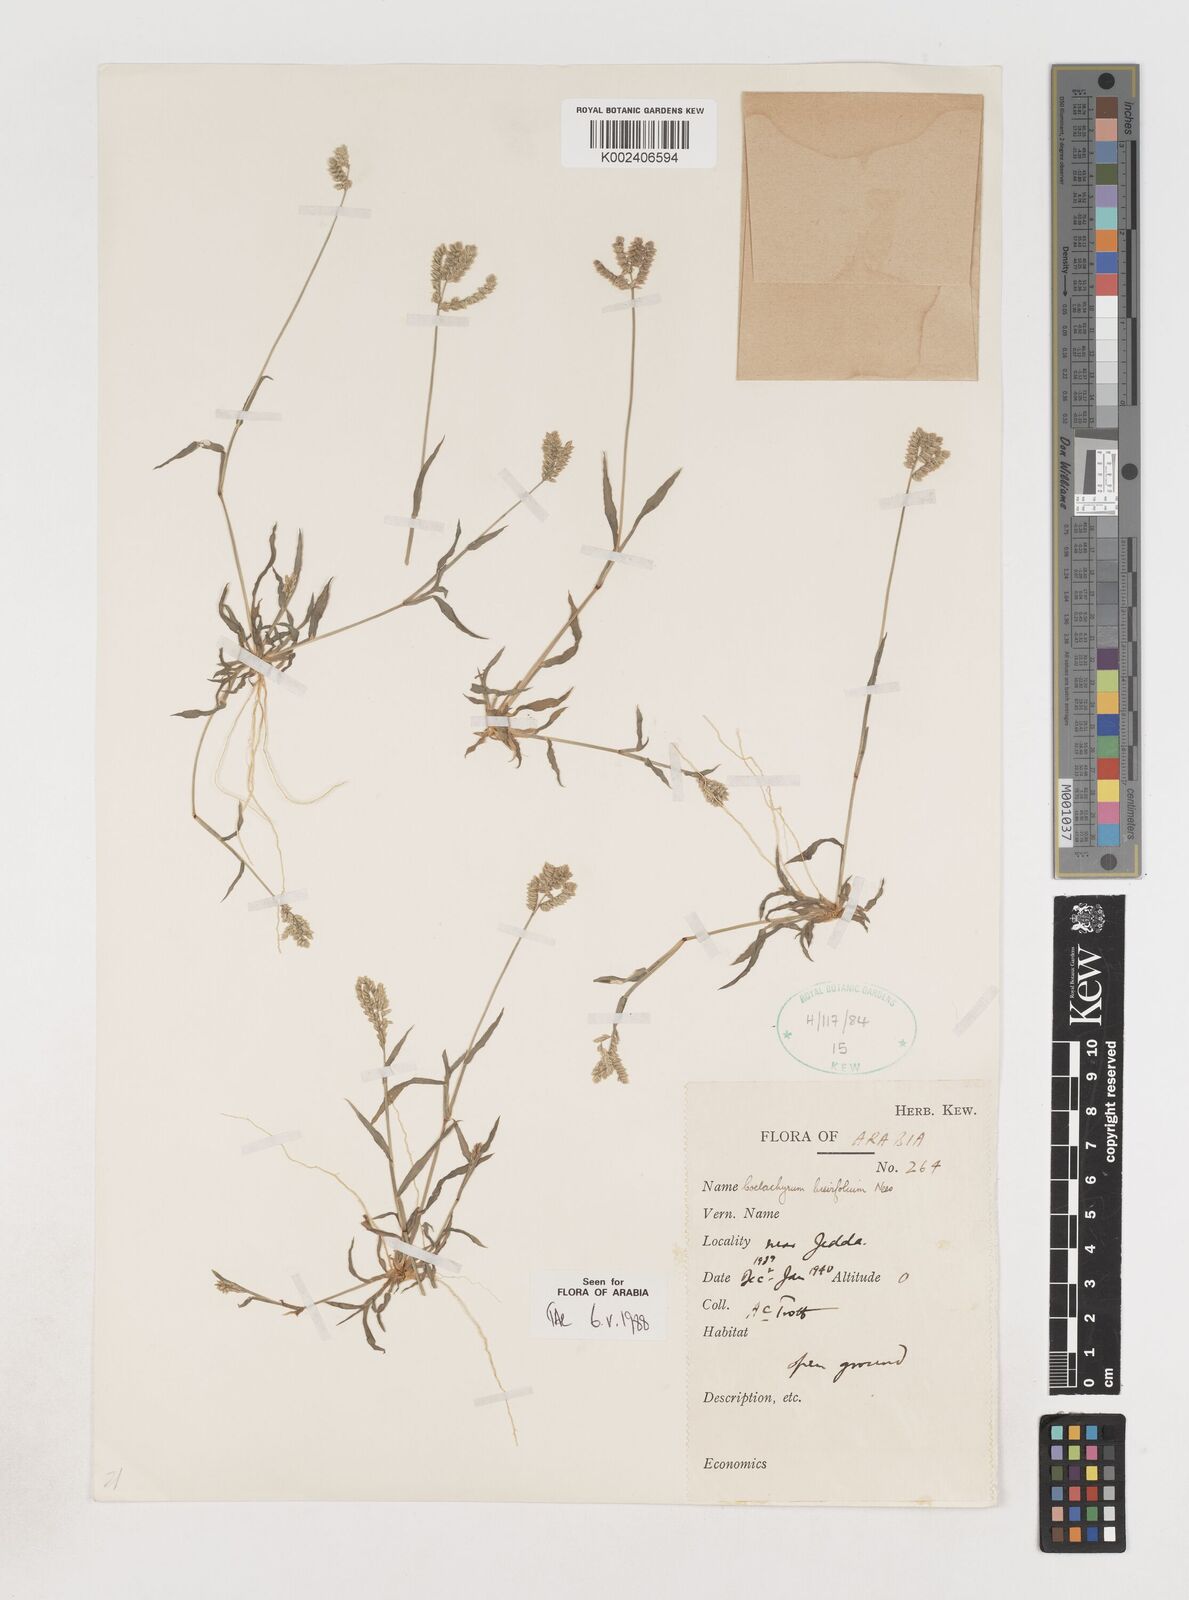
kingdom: Plantae
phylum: Tracheophyta
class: Liliopsida
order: Poales
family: Poaceae
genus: Coelachyrum
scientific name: Coelachyrum brevifolium
